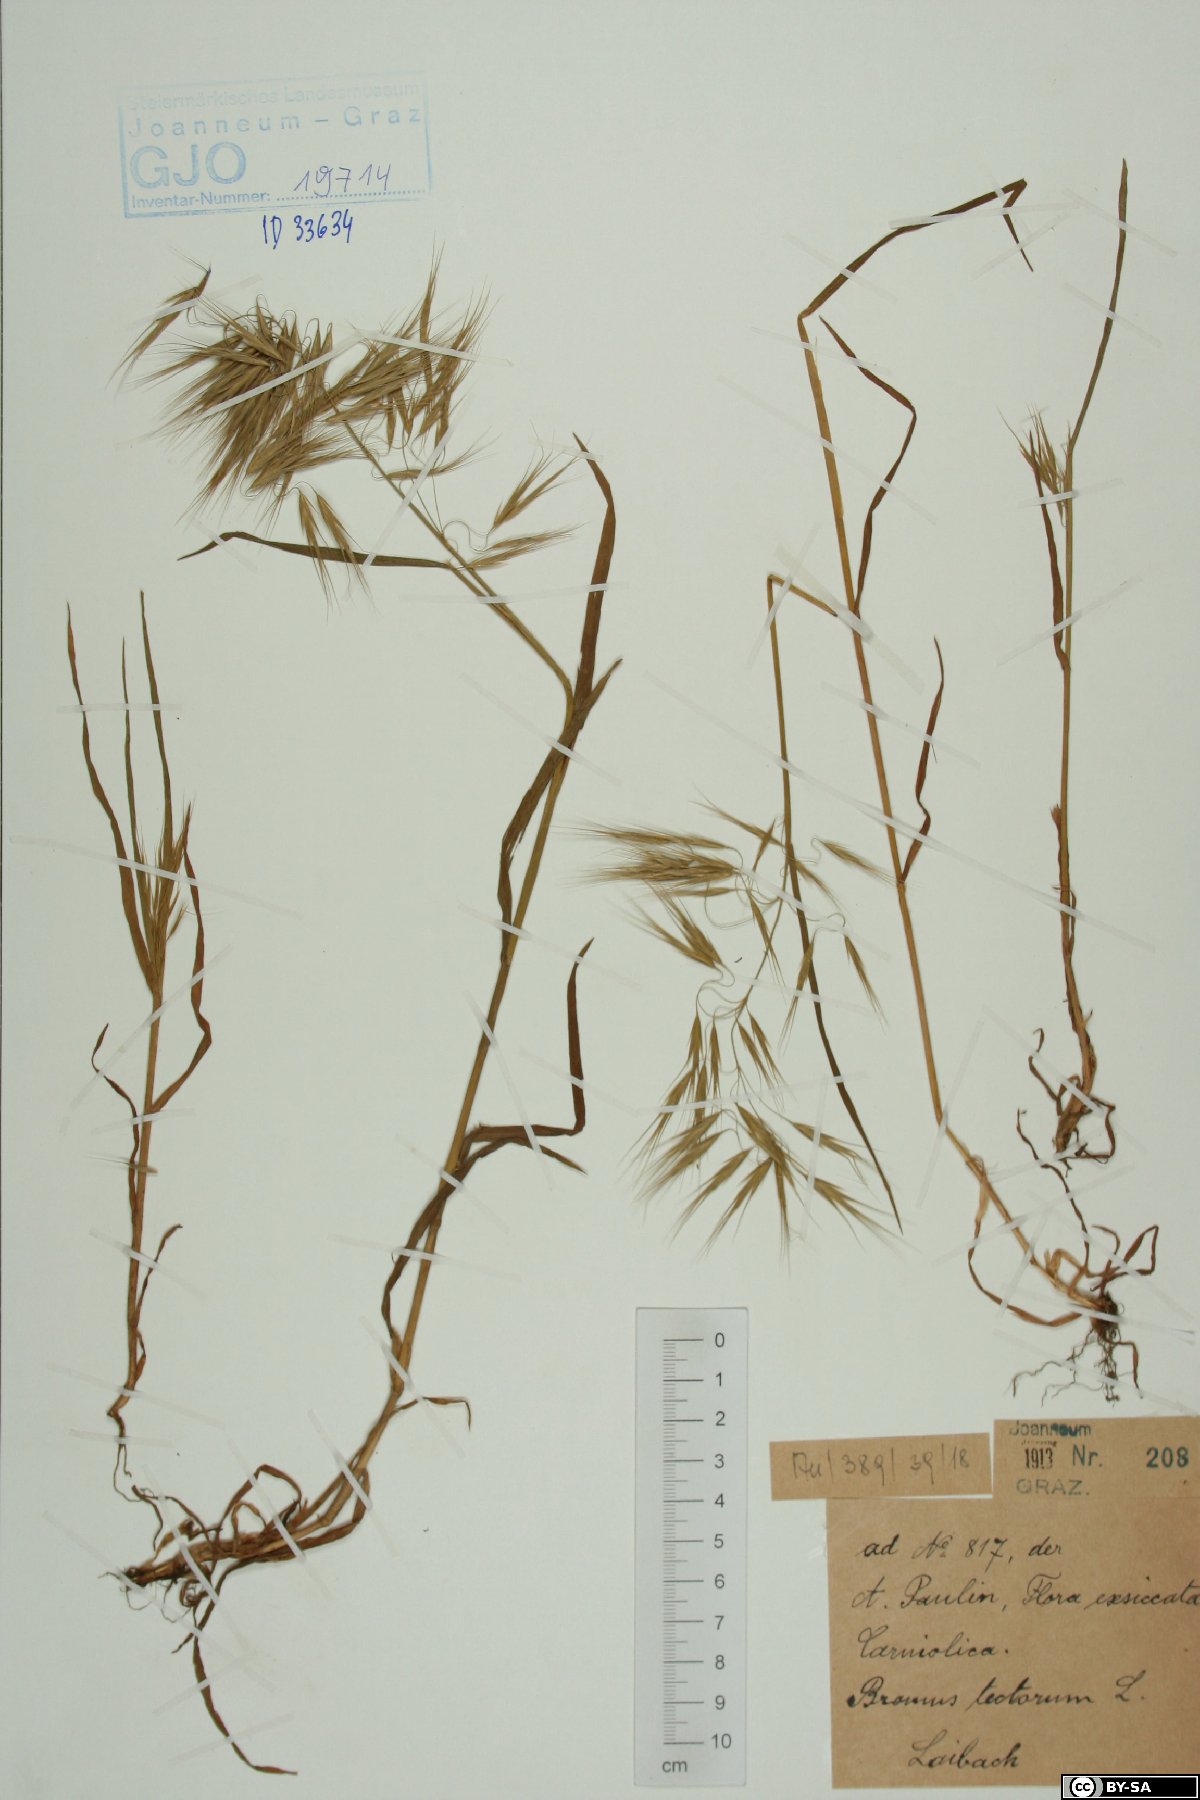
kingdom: Plantae
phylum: Tracheophyta
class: Liliopsida
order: Poales
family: Poaceae
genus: Bromus
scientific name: Bromus tectorum
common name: Cheatgrass
